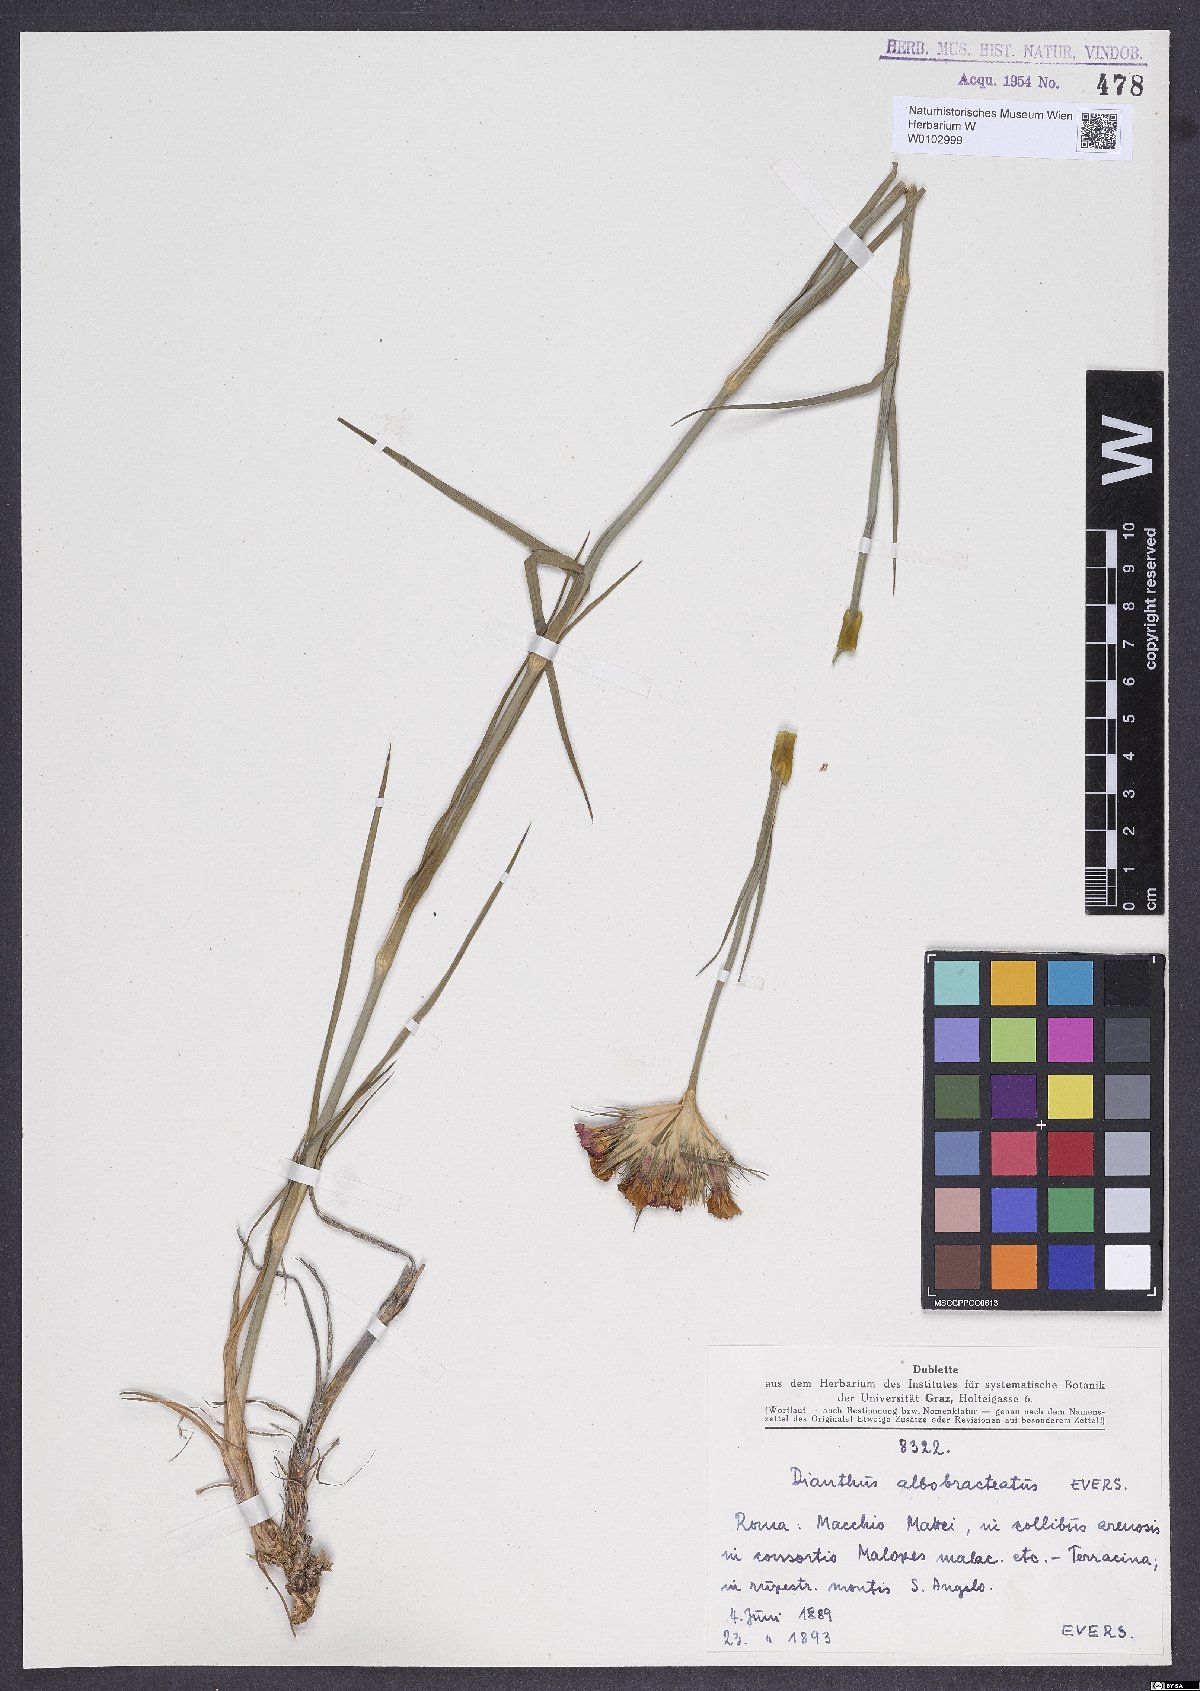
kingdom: Plantae
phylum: Tracheophyta
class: Magnoliopsida
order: Caryophyllales
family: Caryophyllaceae
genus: Dianthus
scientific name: Dianthus
